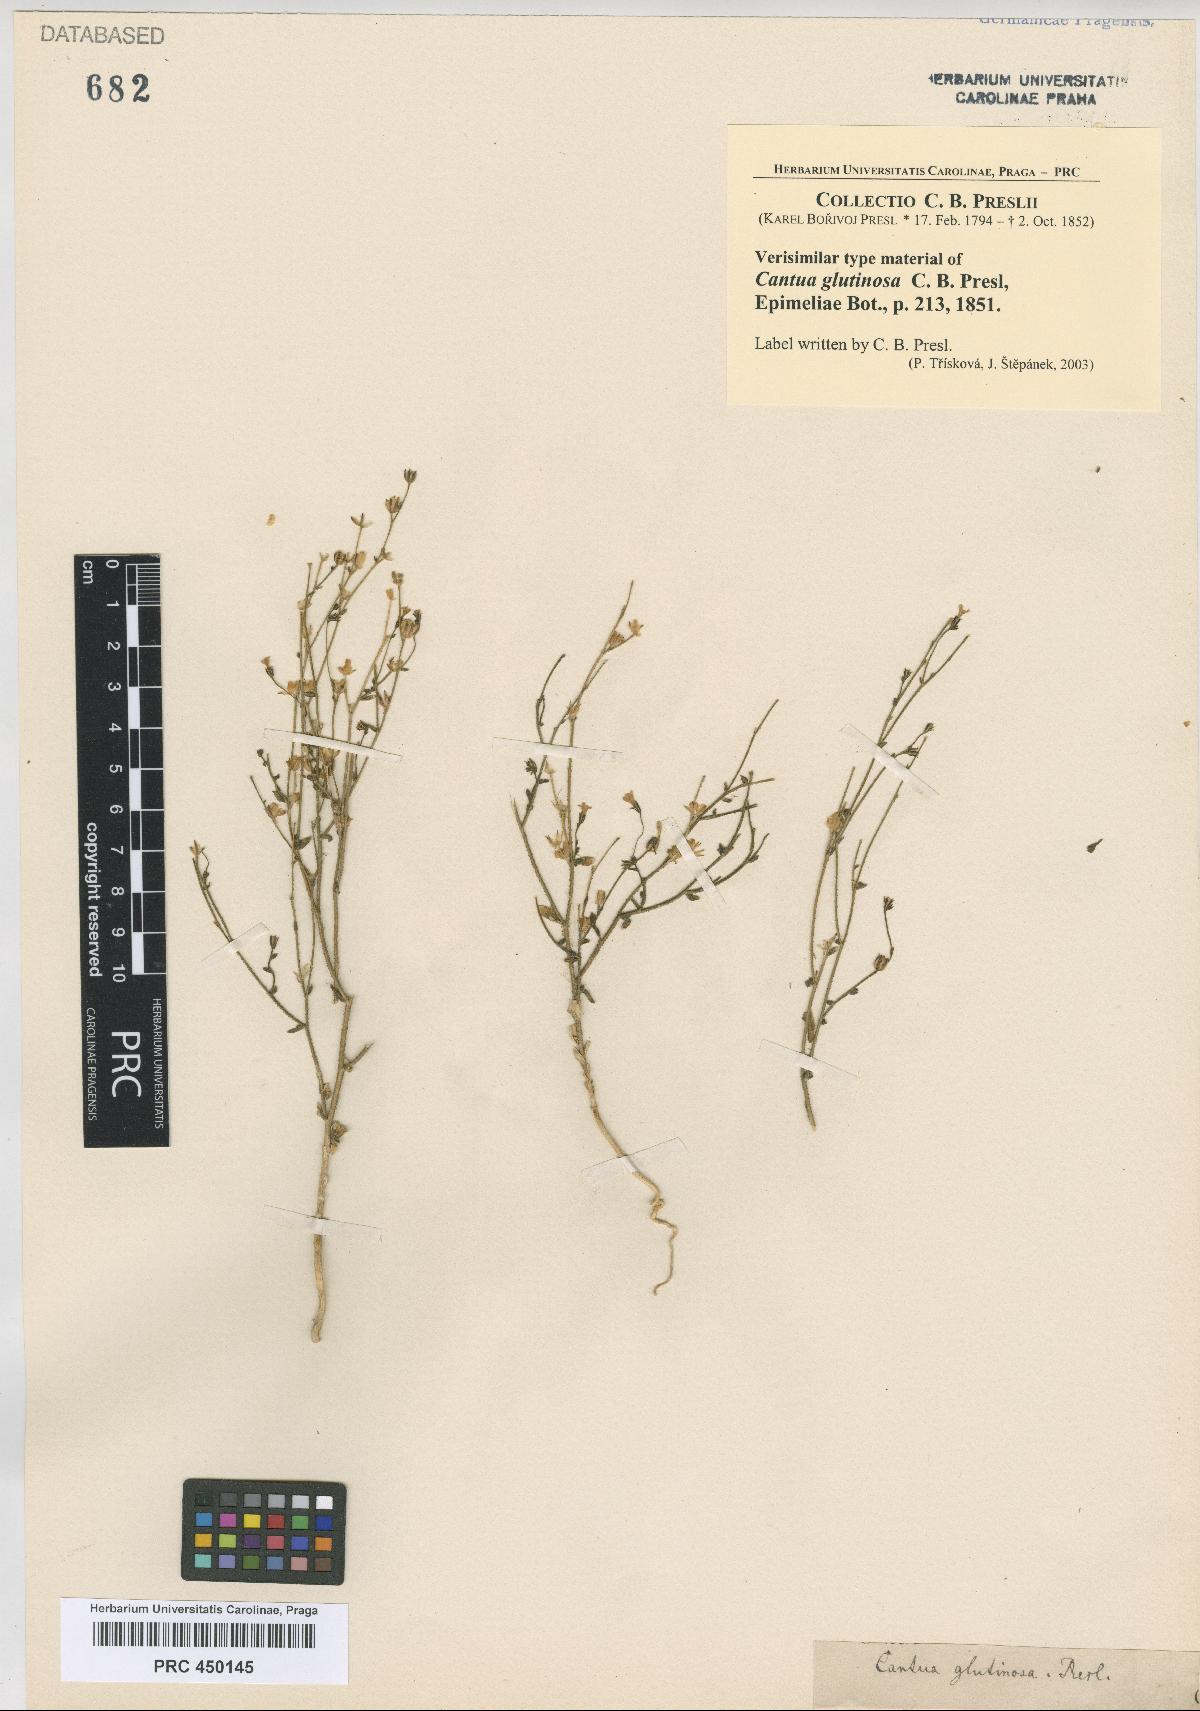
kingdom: Plantae
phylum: Tracheophyta
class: Magnoliopsida
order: Ericales
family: Polemoniaceae
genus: Cantua
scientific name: Cantua glutinosa
